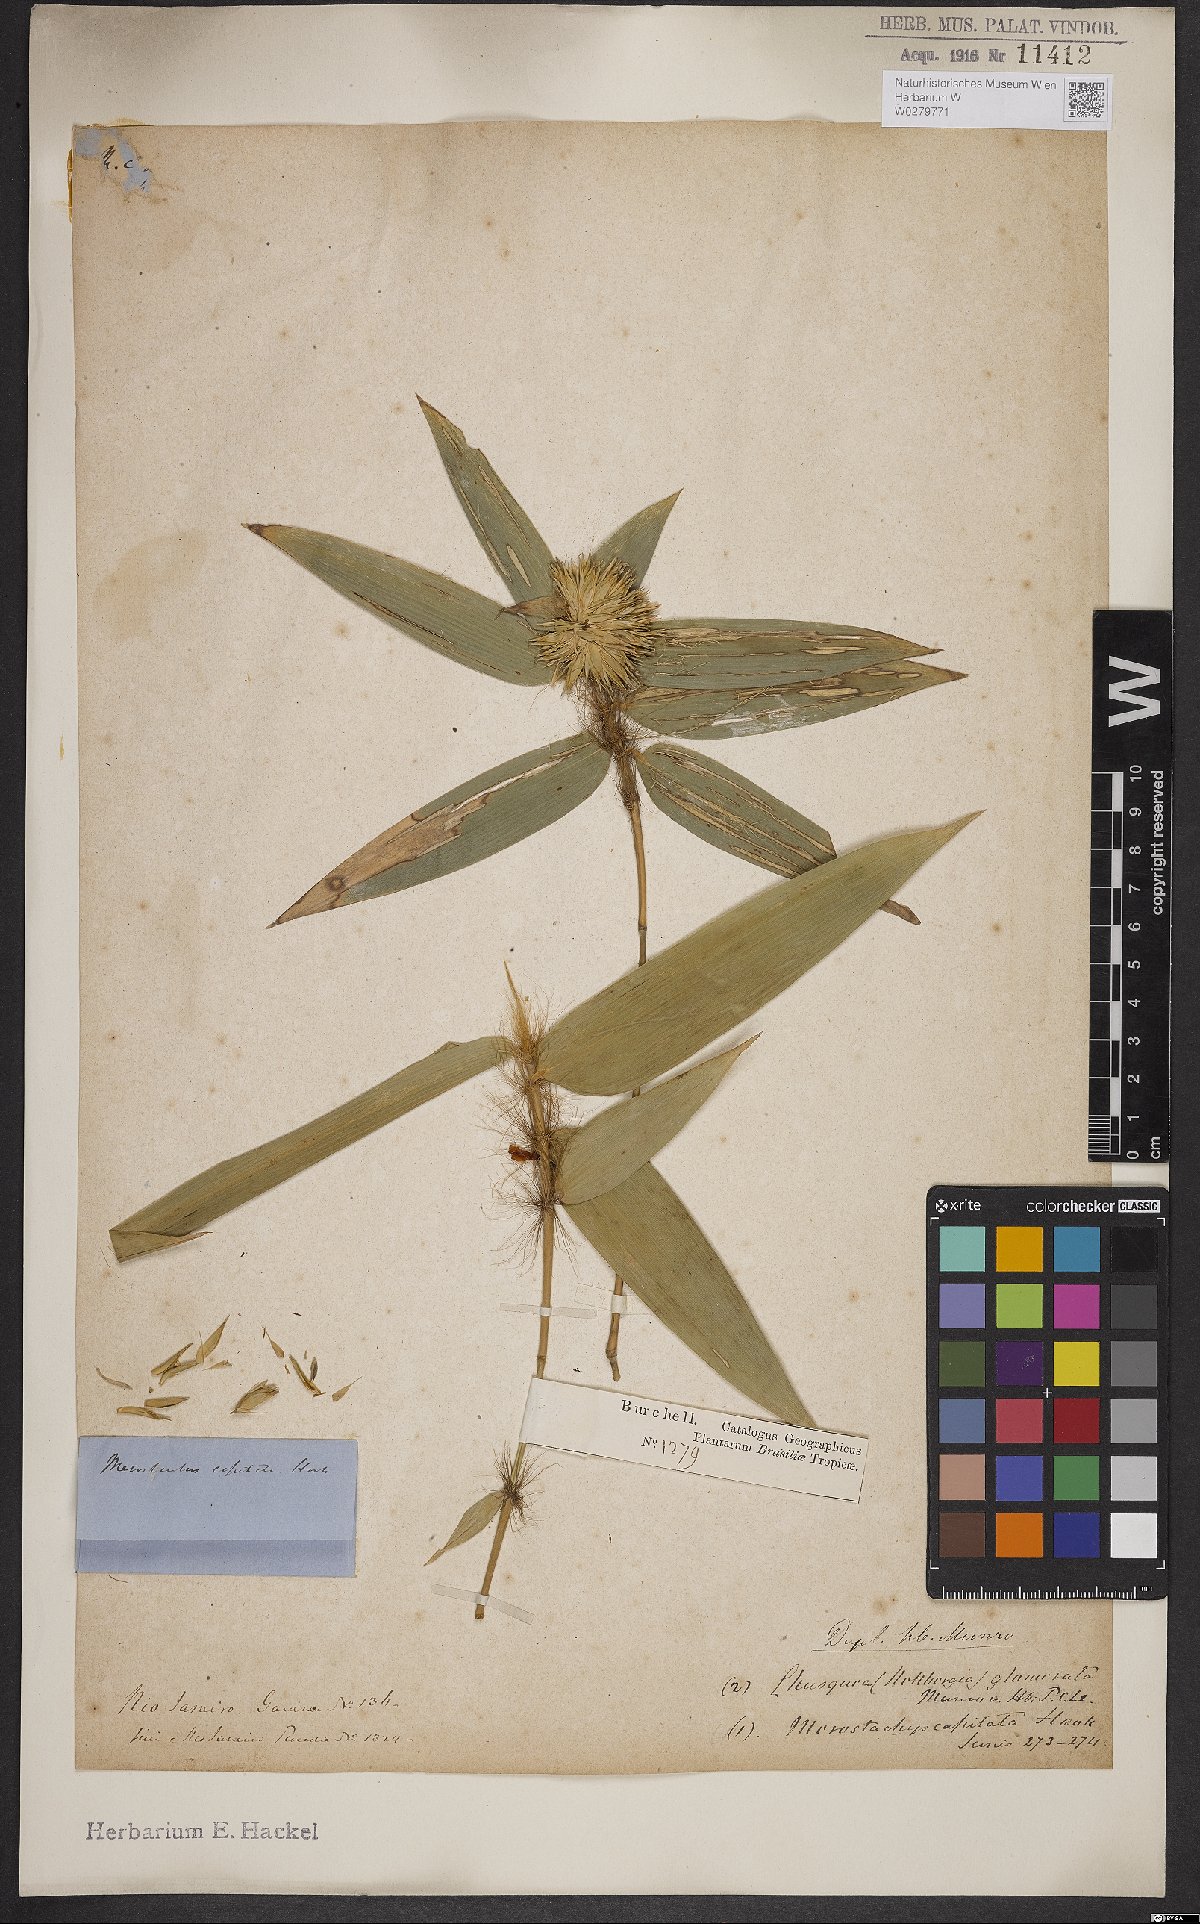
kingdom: Plantae
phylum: Tracheophyta
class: Liliopsida
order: Poales
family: Poaceae
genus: Athroostachys
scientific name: Athroostachys capitata
